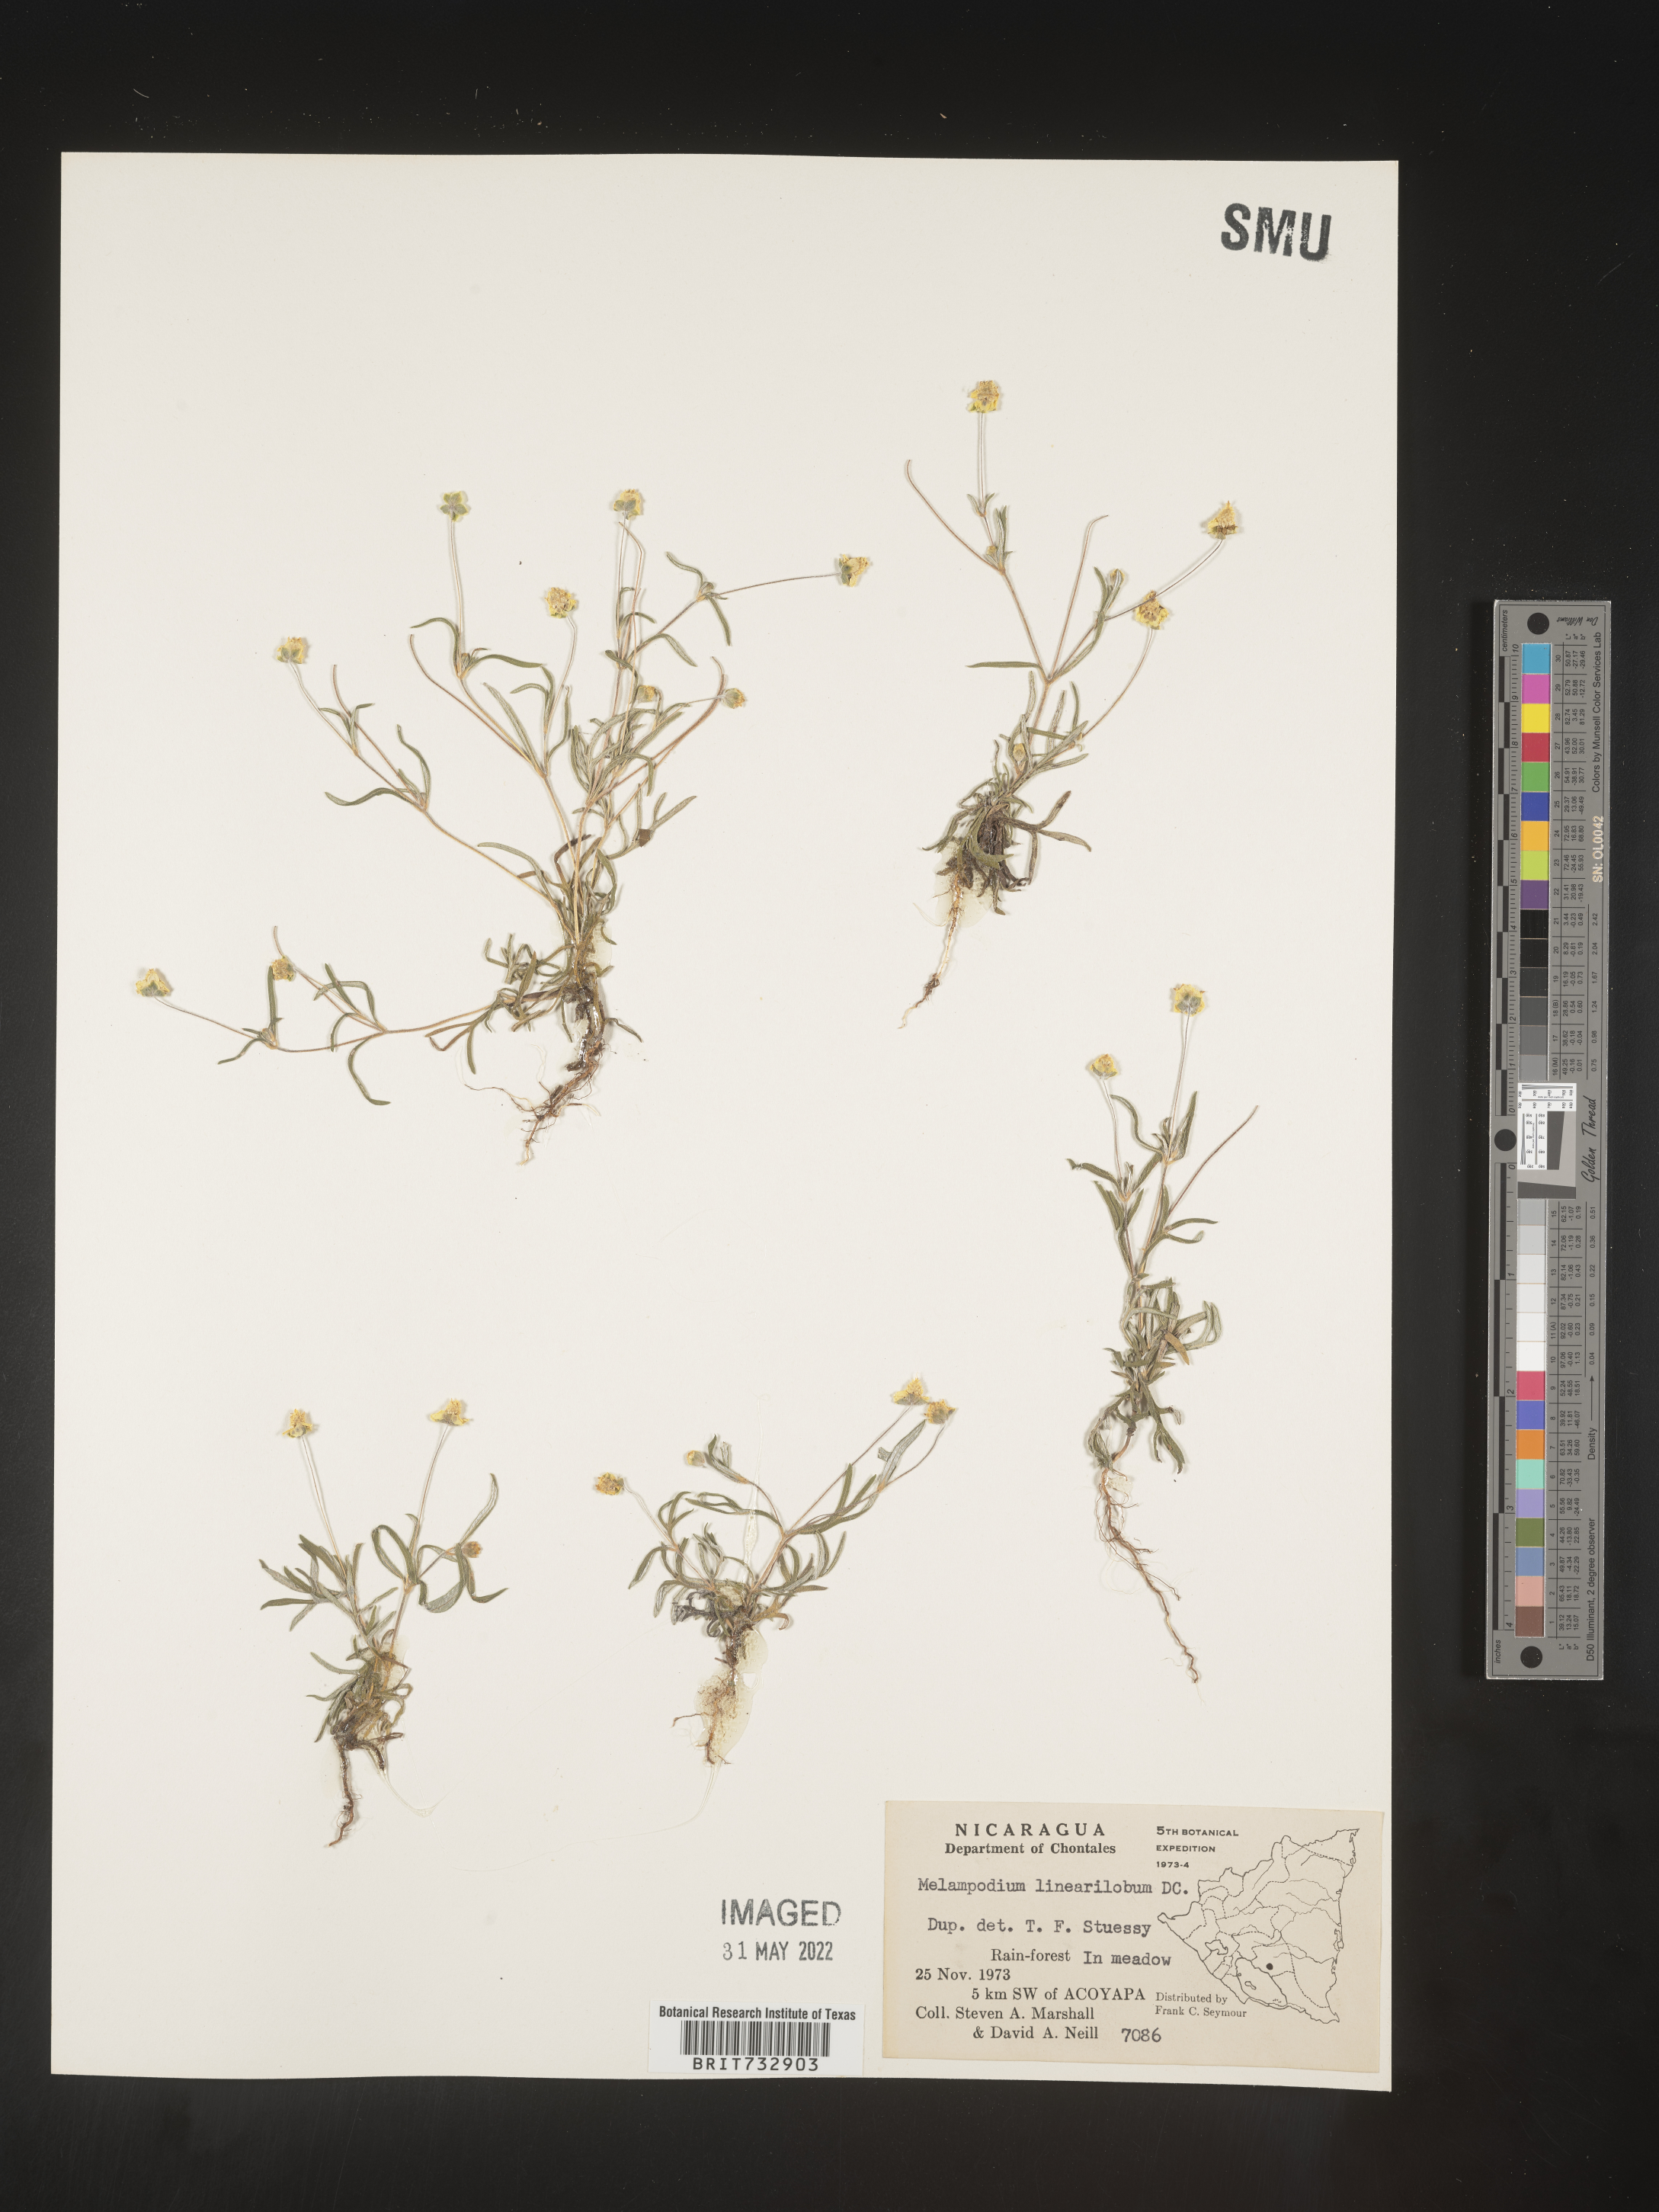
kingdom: Plantae
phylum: Tracheophyta
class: Magnoliopsida
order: Asterales
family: Asteraceae
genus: Melampodium
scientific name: Melampodium
